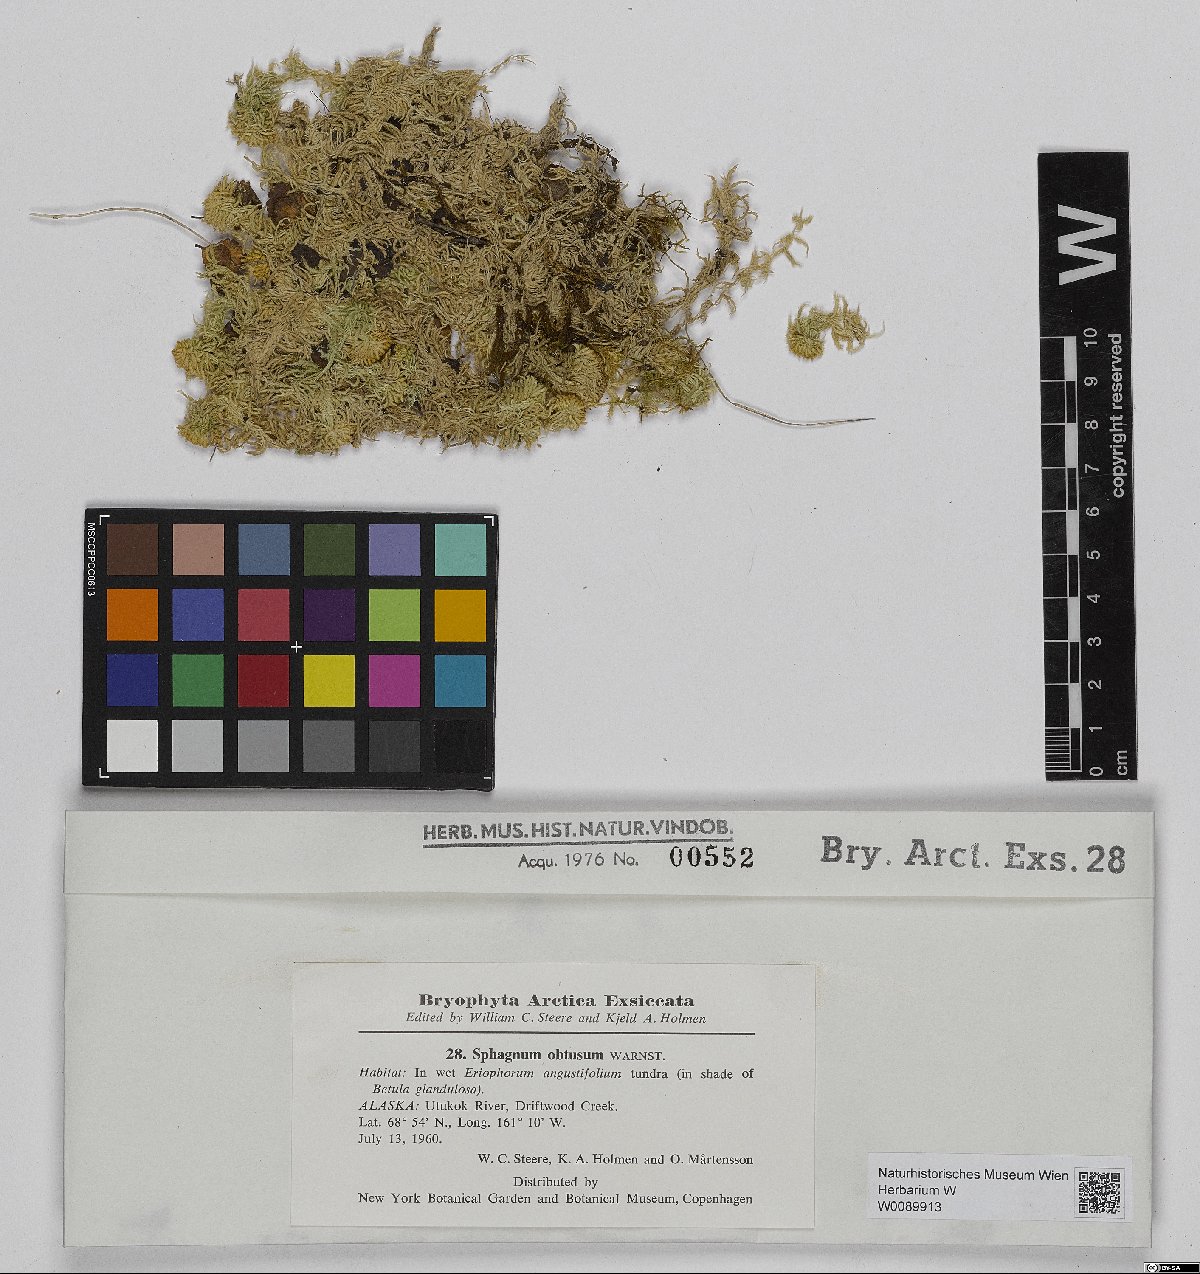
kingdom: Plantae
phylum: Bryophyta
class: Sphagnopsida
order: Sphagnales
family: Sphagnaceae
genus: Sphagnum
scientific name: Sphagnum obtusum
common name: Obtuse peat moss
